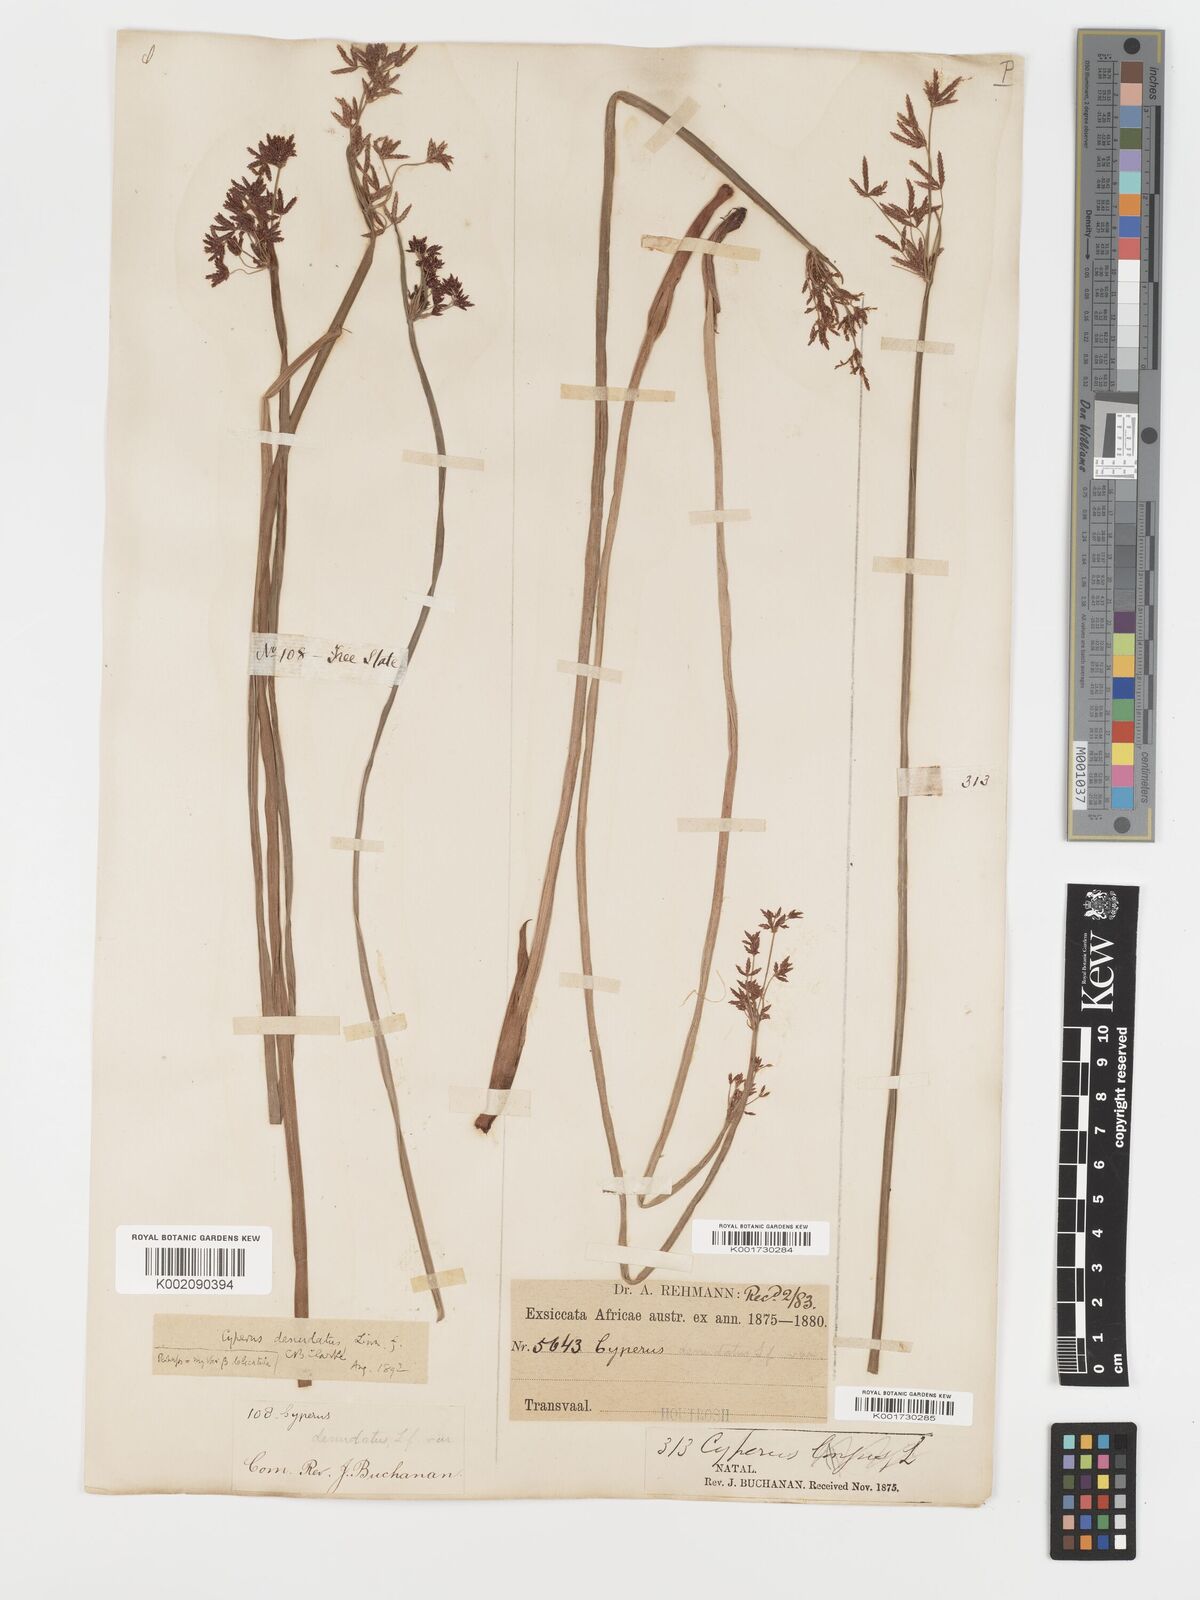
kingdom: Plantae
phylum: Tracheophyta
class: Liliopsida
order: Poales
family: Cyperaceae
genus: Cyperus
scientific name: Cyperus platycaulis
